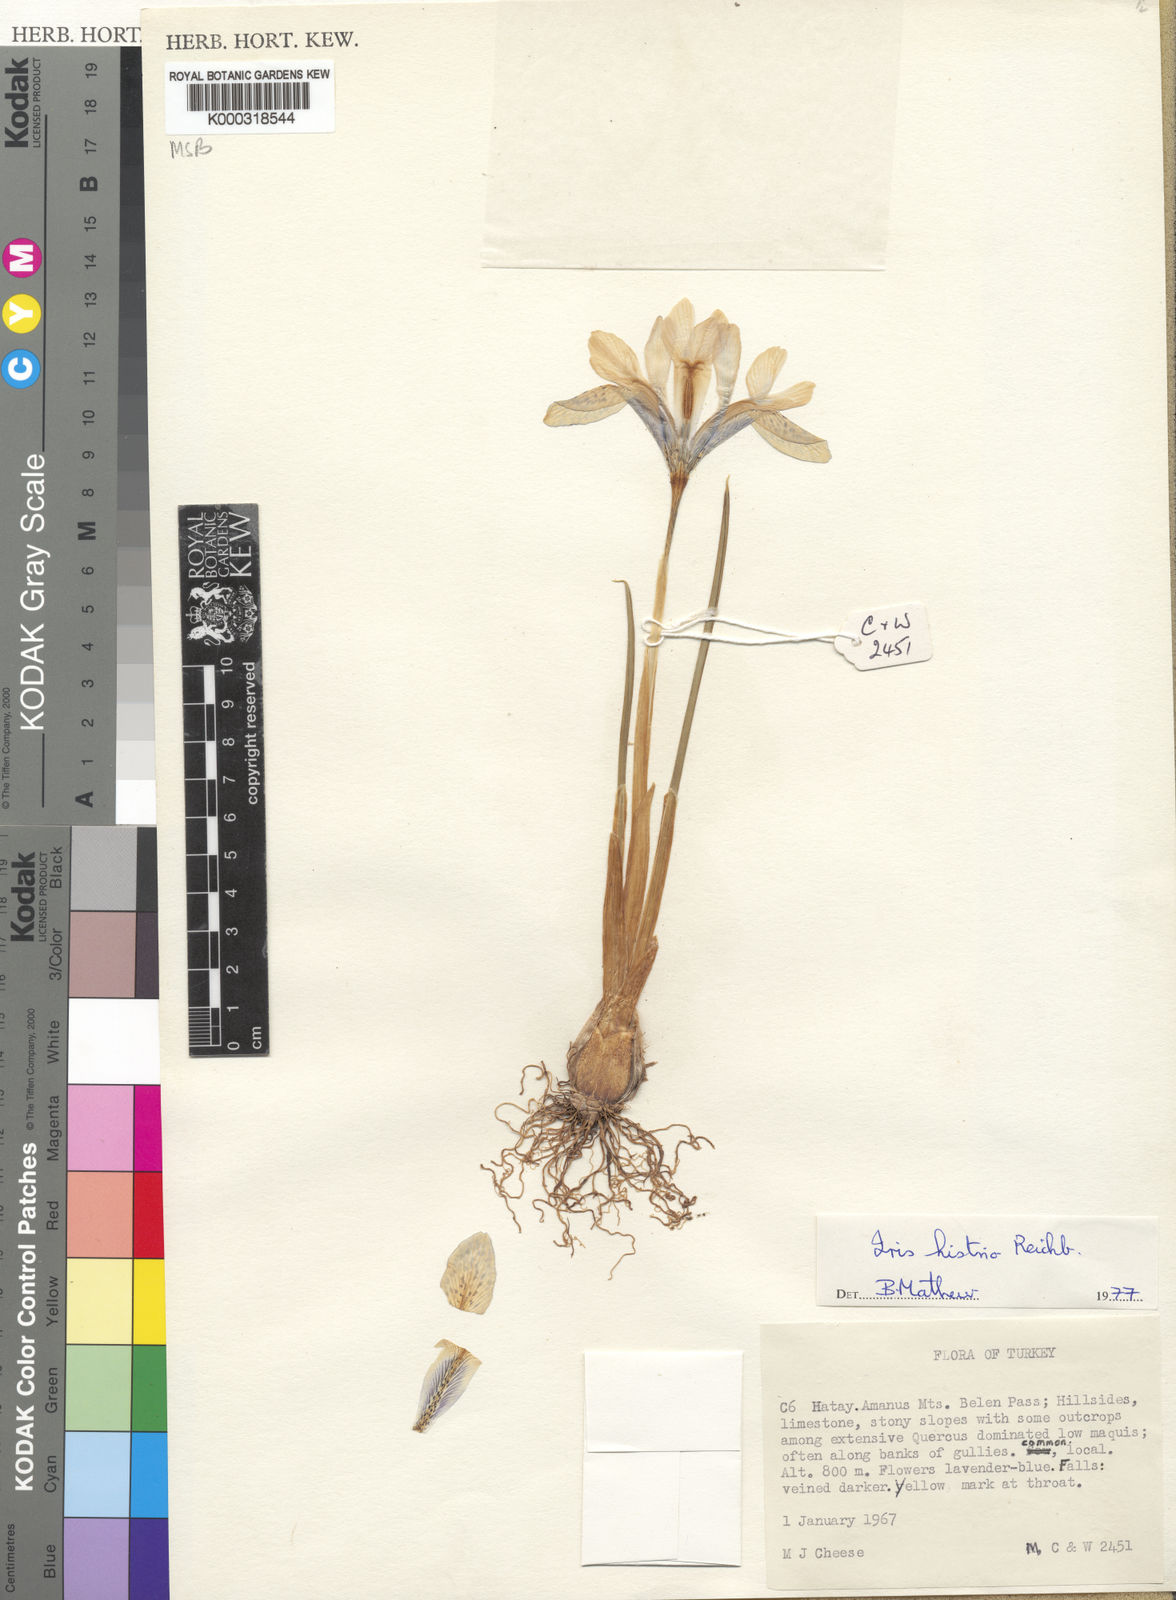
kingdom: Plantae
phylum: Tracheophyta
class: Liliopsida
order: Asparagales
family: Iridaceae
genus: Iris
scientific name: Iris histrio
